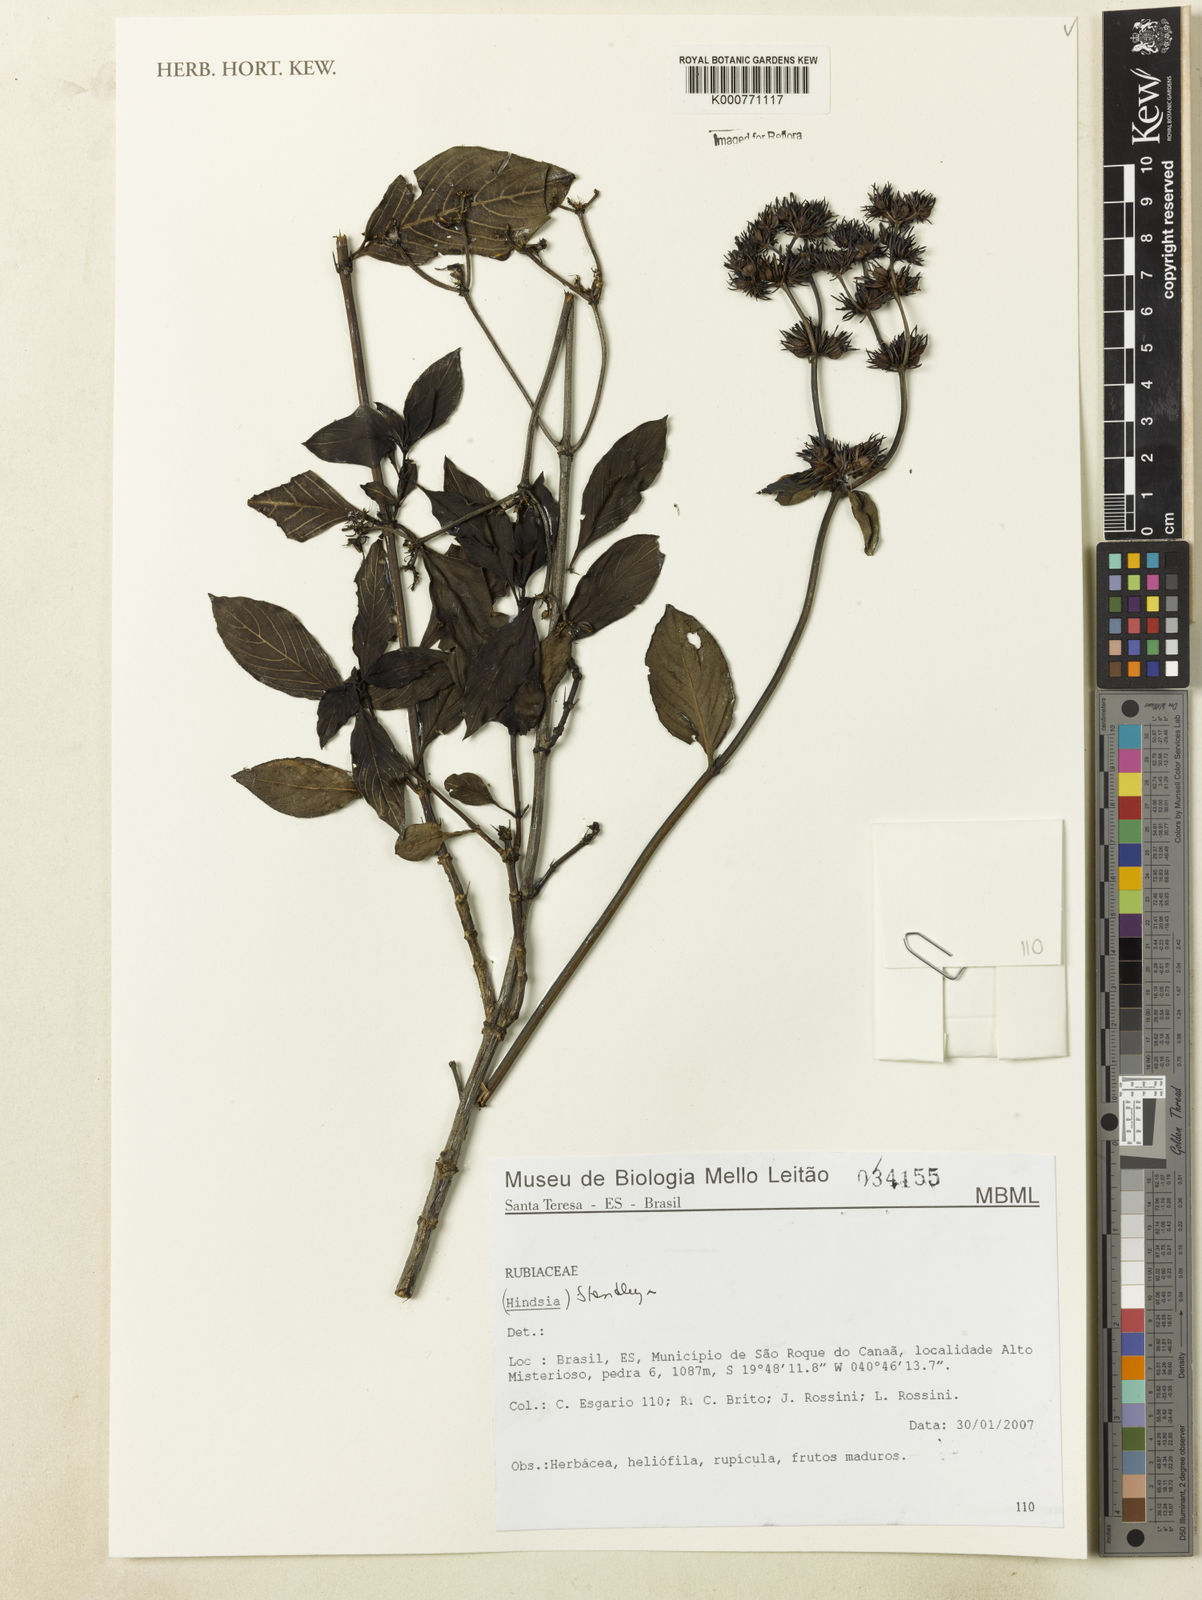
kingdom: Plantae
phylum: Tracheophyta
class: Magnoliopsida
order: Gentianales
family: Rubiaceae
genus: Standleya
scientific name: Standleya
